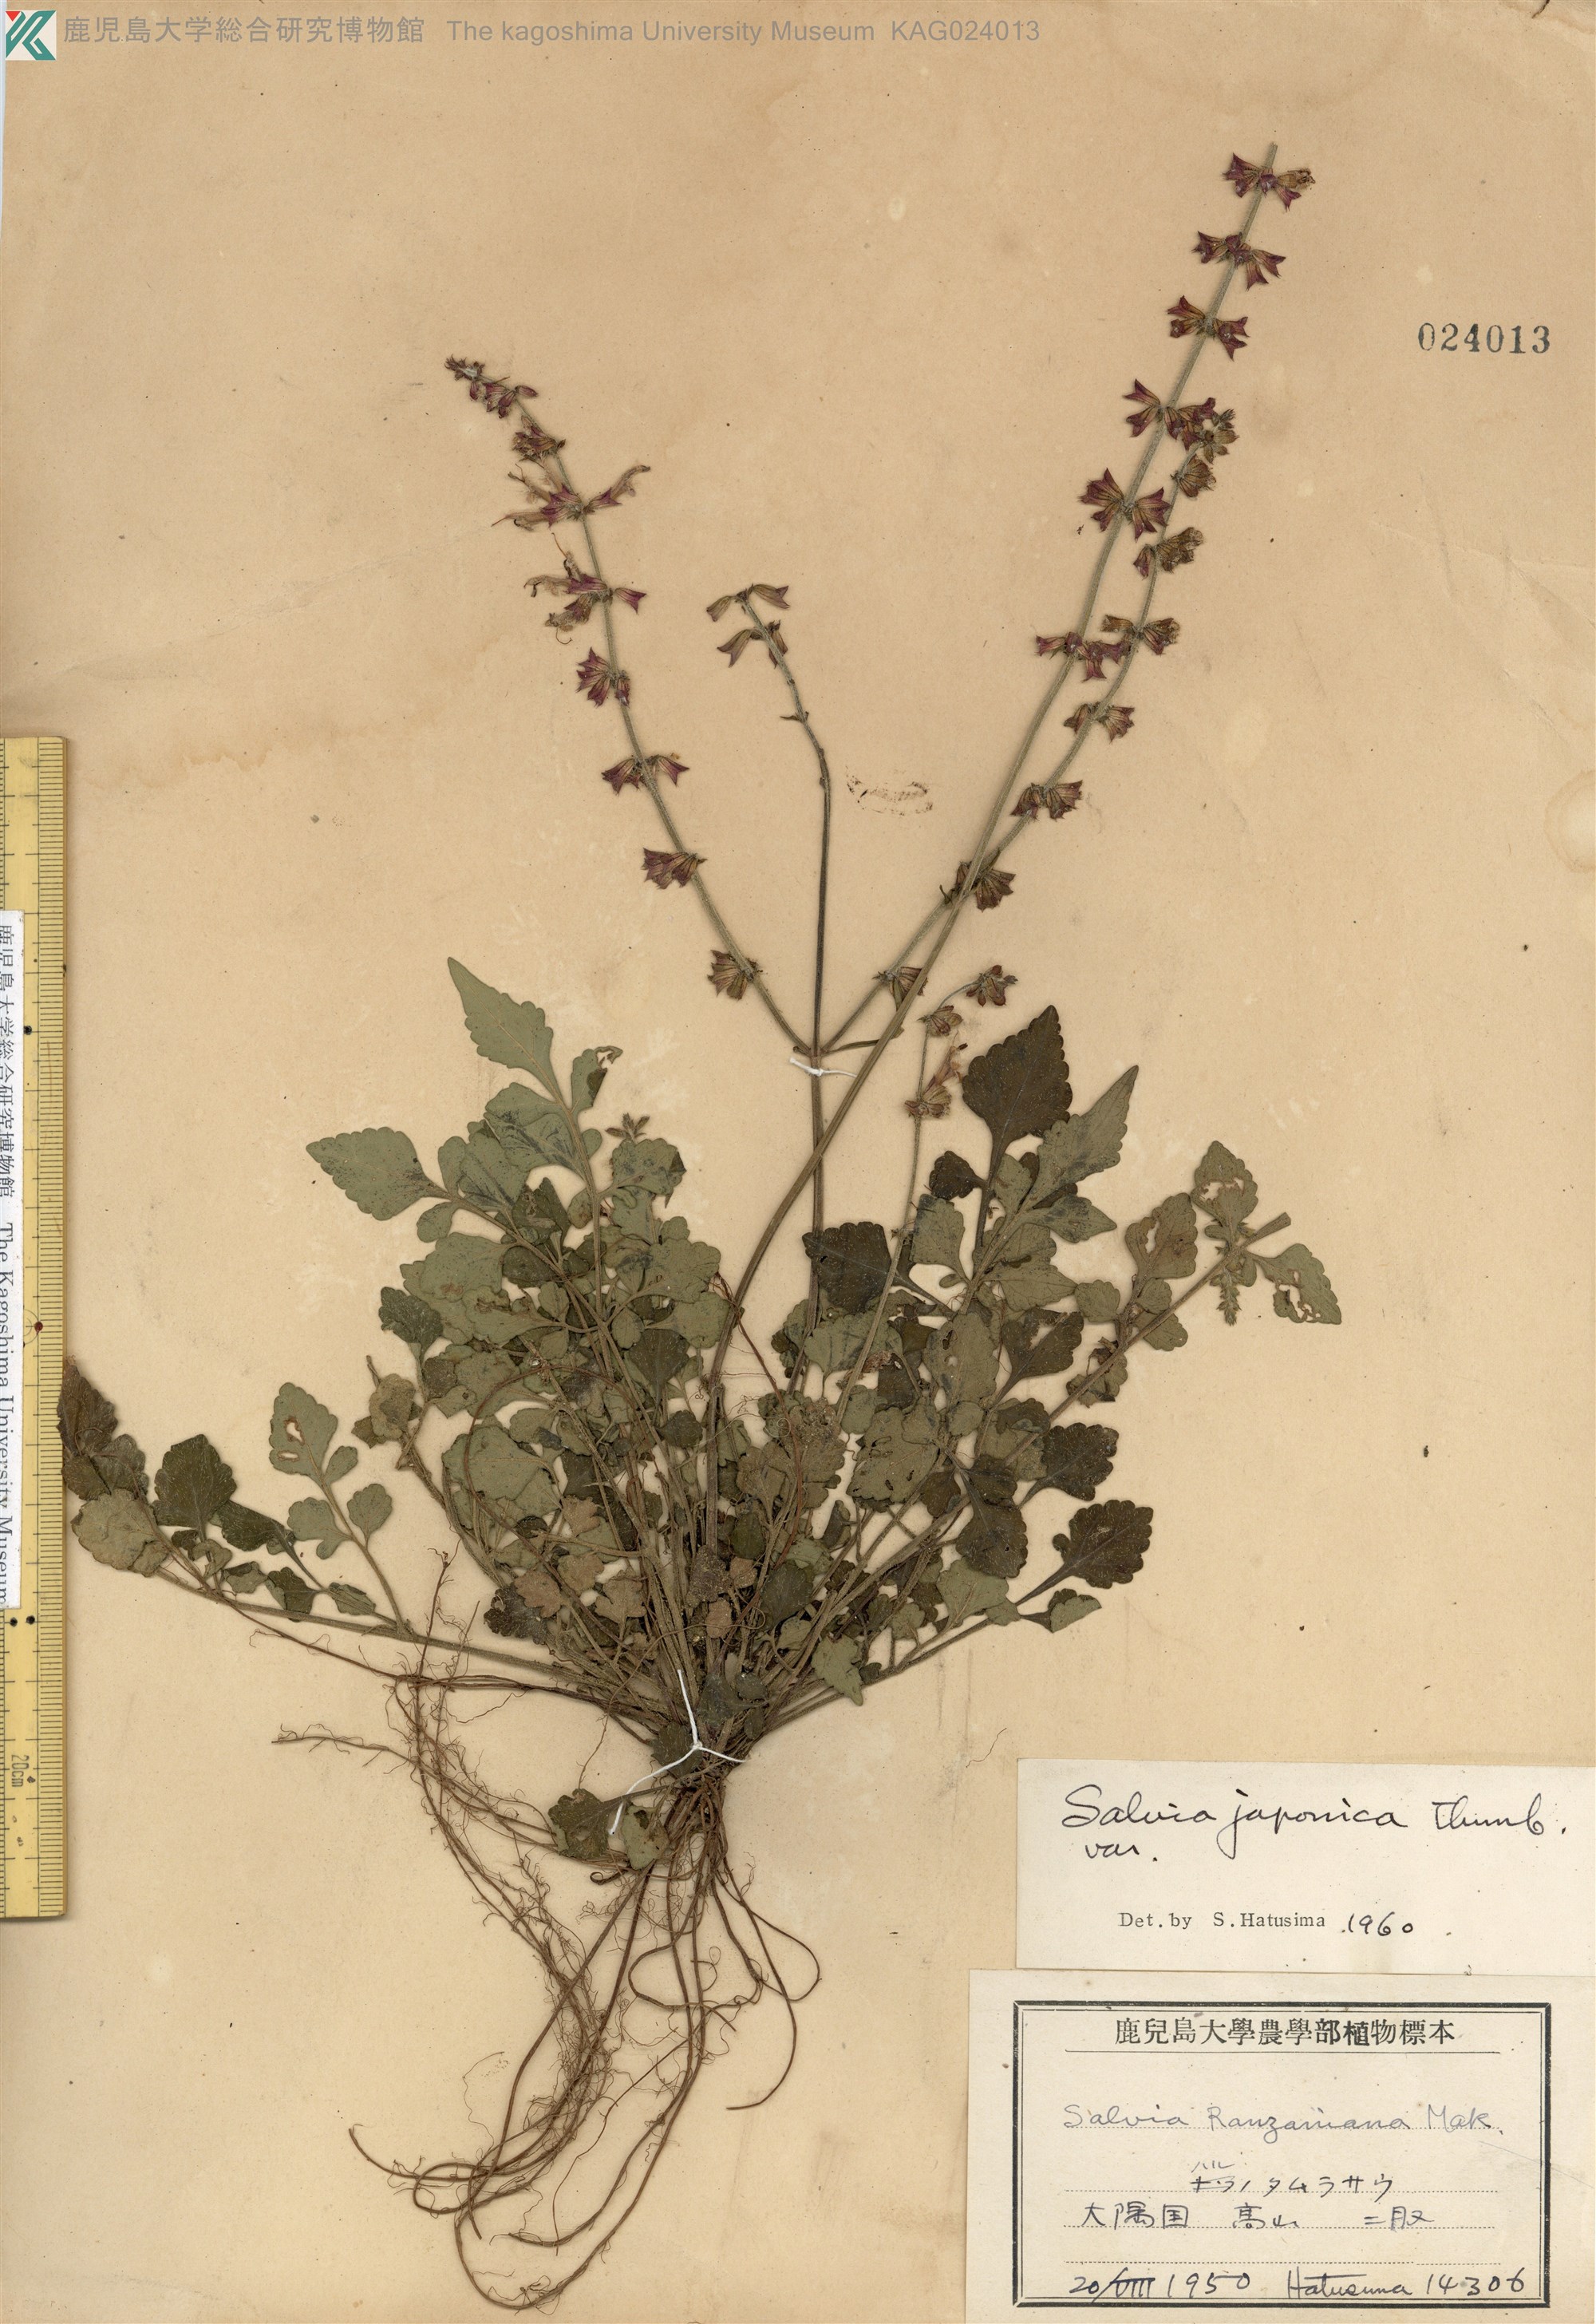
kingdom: Plantae
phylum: Tracheophyta
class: Magnoliopsida
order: Lamiales
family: Lamiaceae
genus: Salvia
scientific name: Salvia japonica
